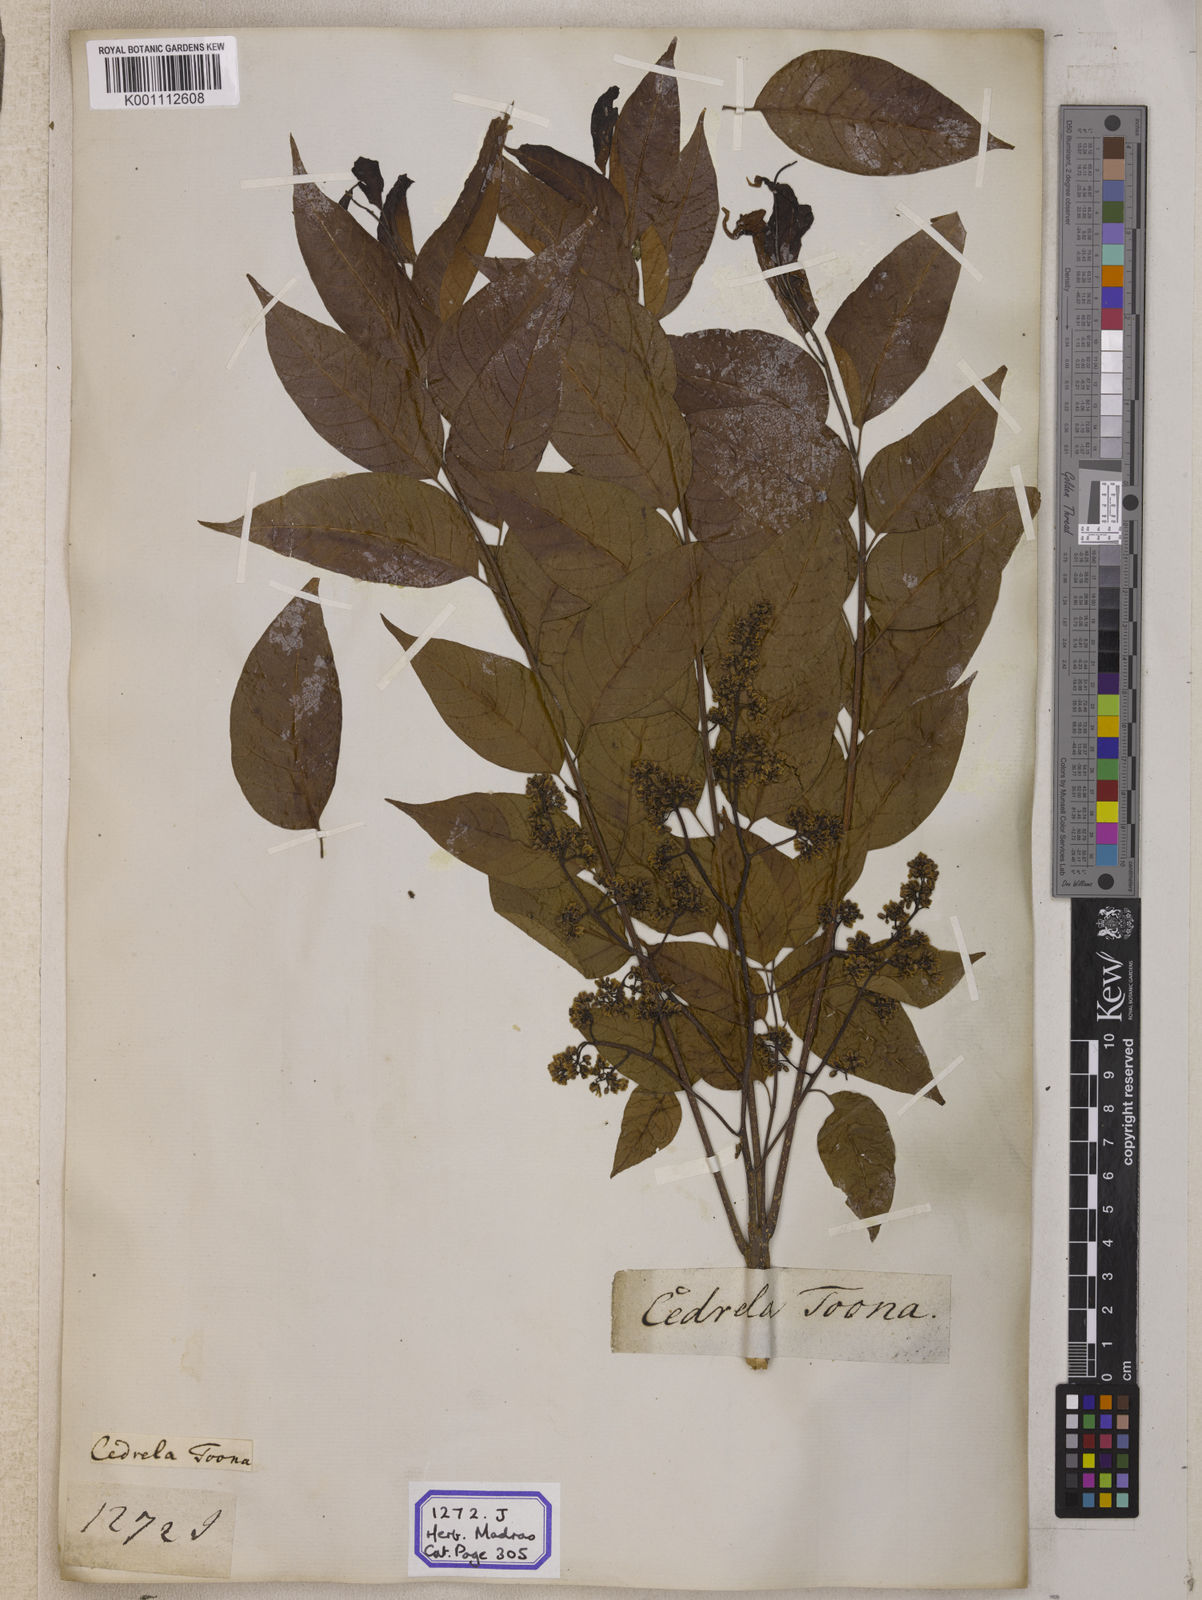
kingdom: Plantae
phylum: Tracheophyta
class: Magnoliopsida
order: Sapindales
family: Meliaceae
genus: Cedrela
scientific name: Cedrela
